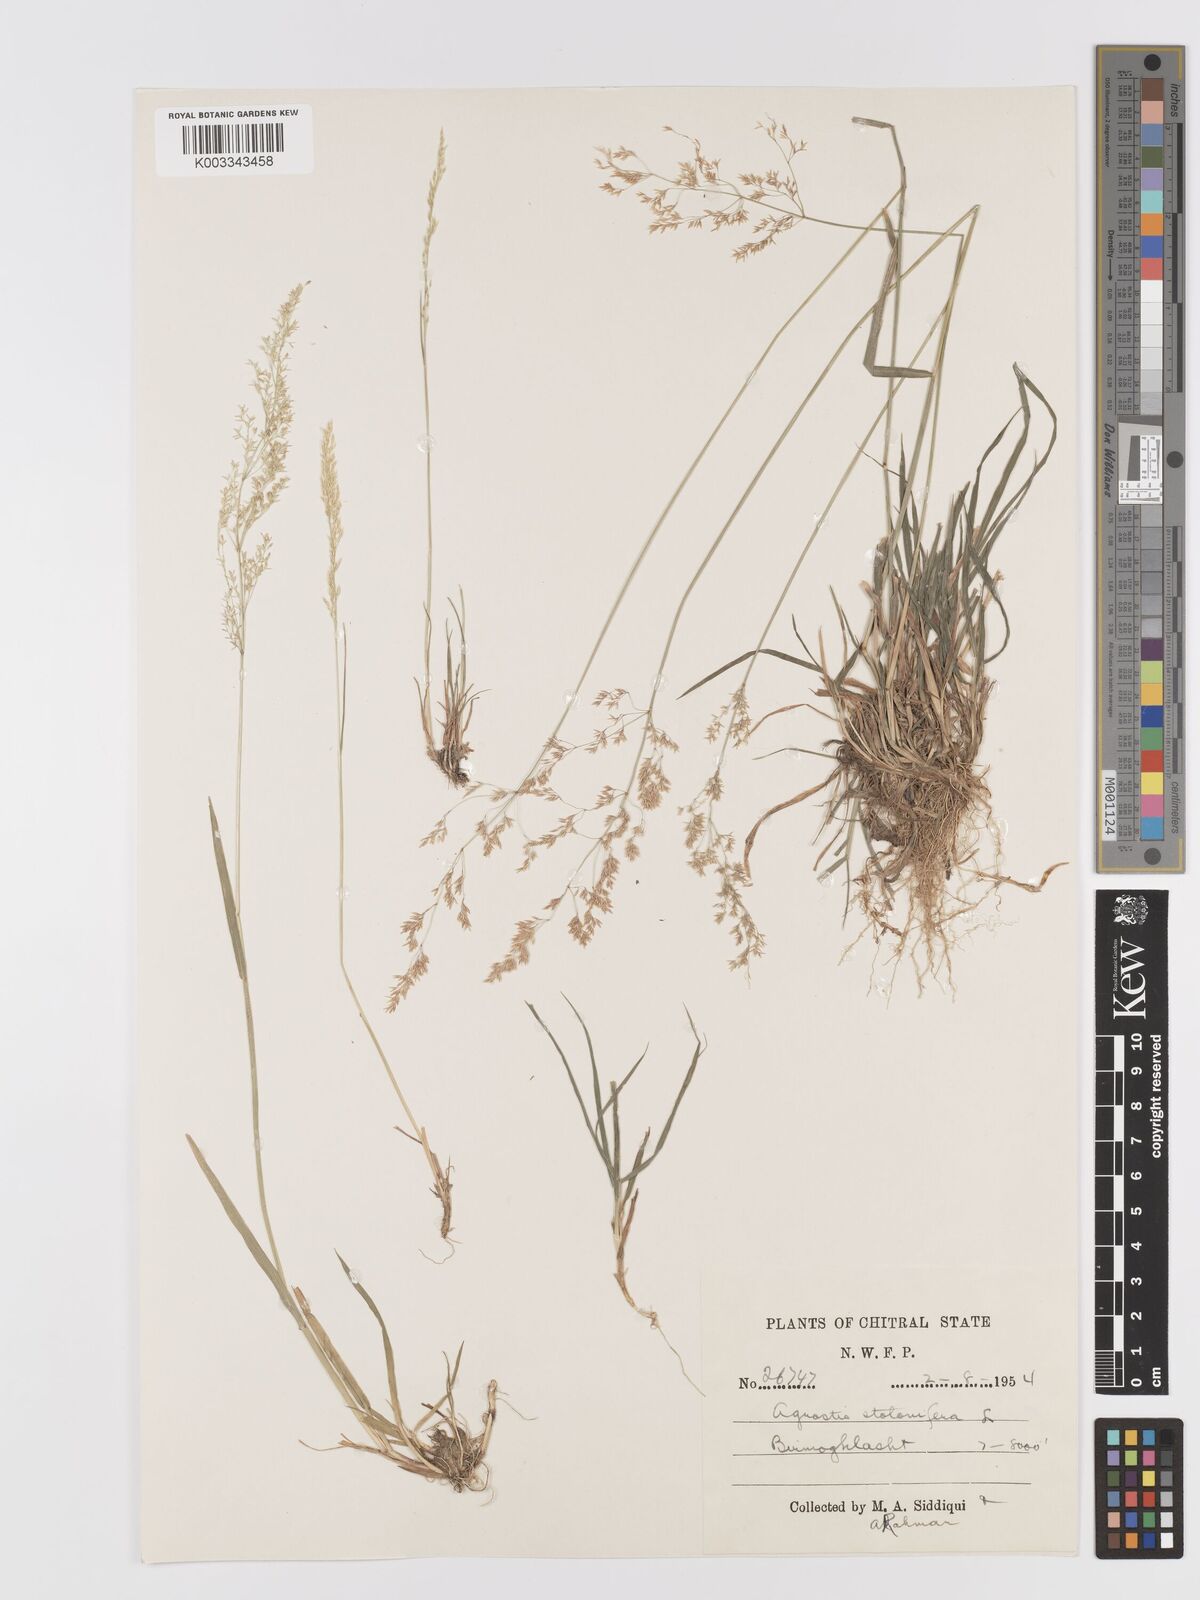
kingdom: Plantae
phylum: Tracheophyta
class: Liliopsida
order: Poales
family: Poaceae
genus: Agrostis
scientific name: Agrostis stolonifera
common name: Creeping bentgrass
